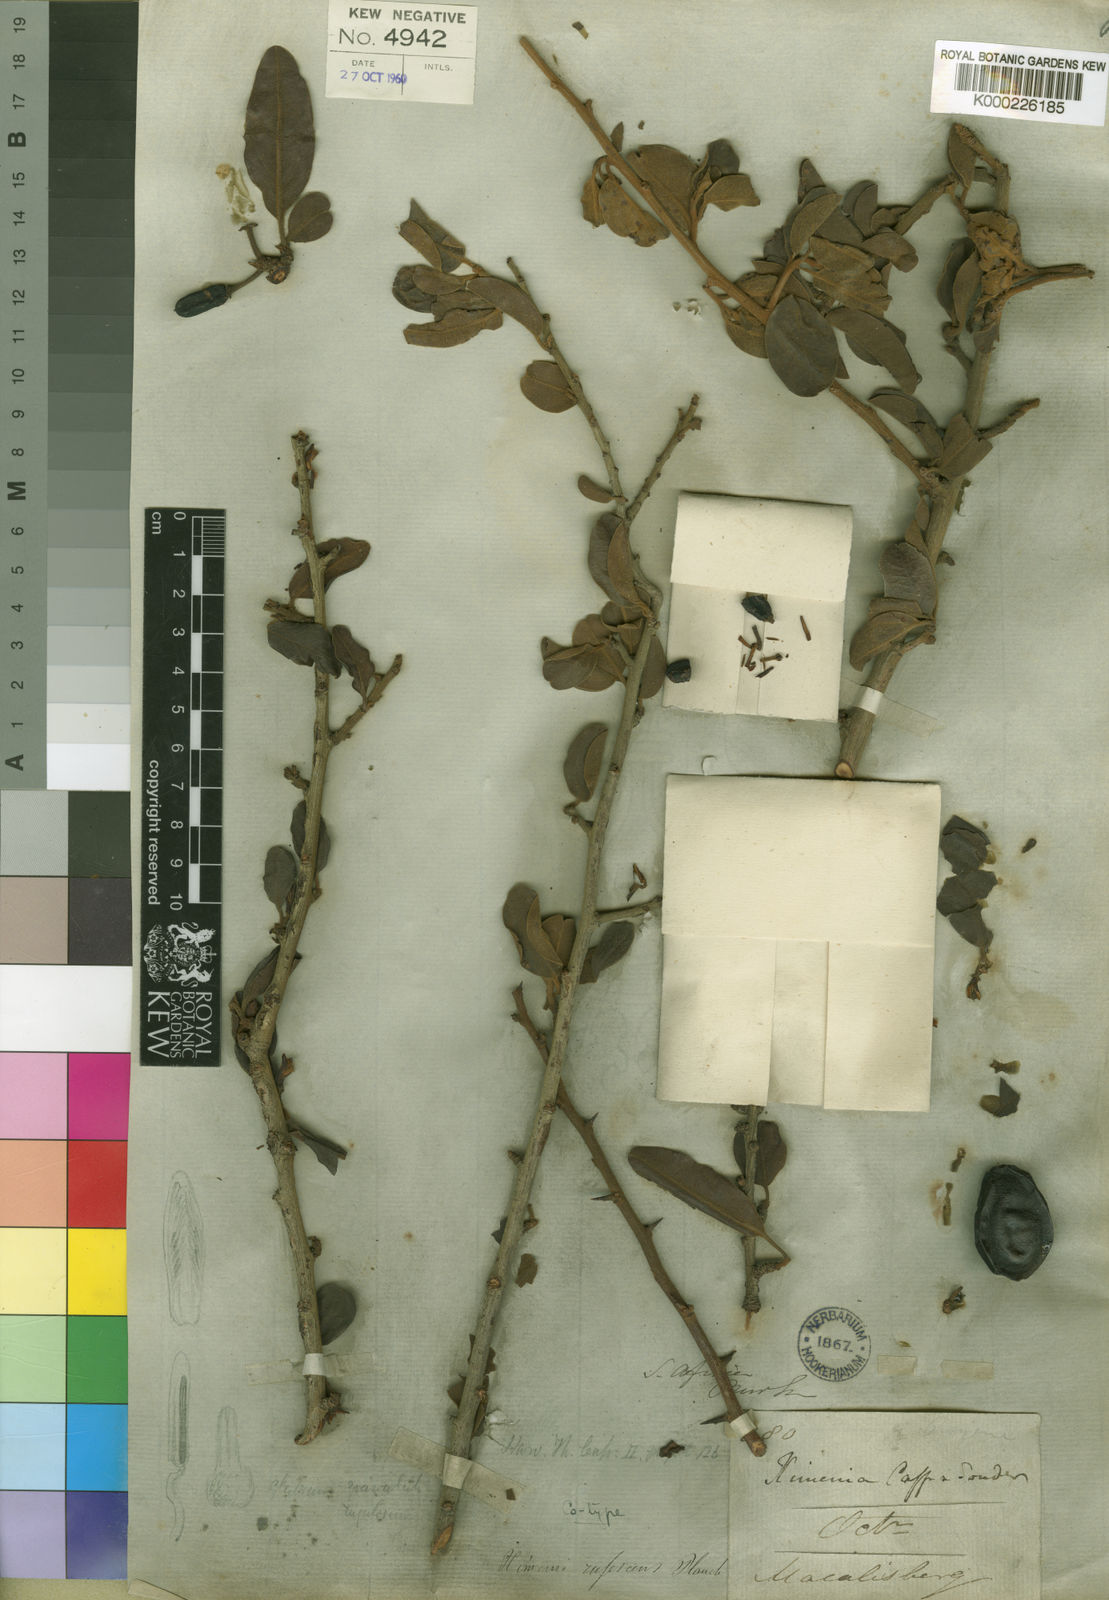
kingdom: Plantae
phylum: Tracheophyta
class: Magnoliopsida
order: Santalales
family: Ximeniaceae
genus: Ximenia
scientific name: Ximenia caffra
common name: Large sourplum
